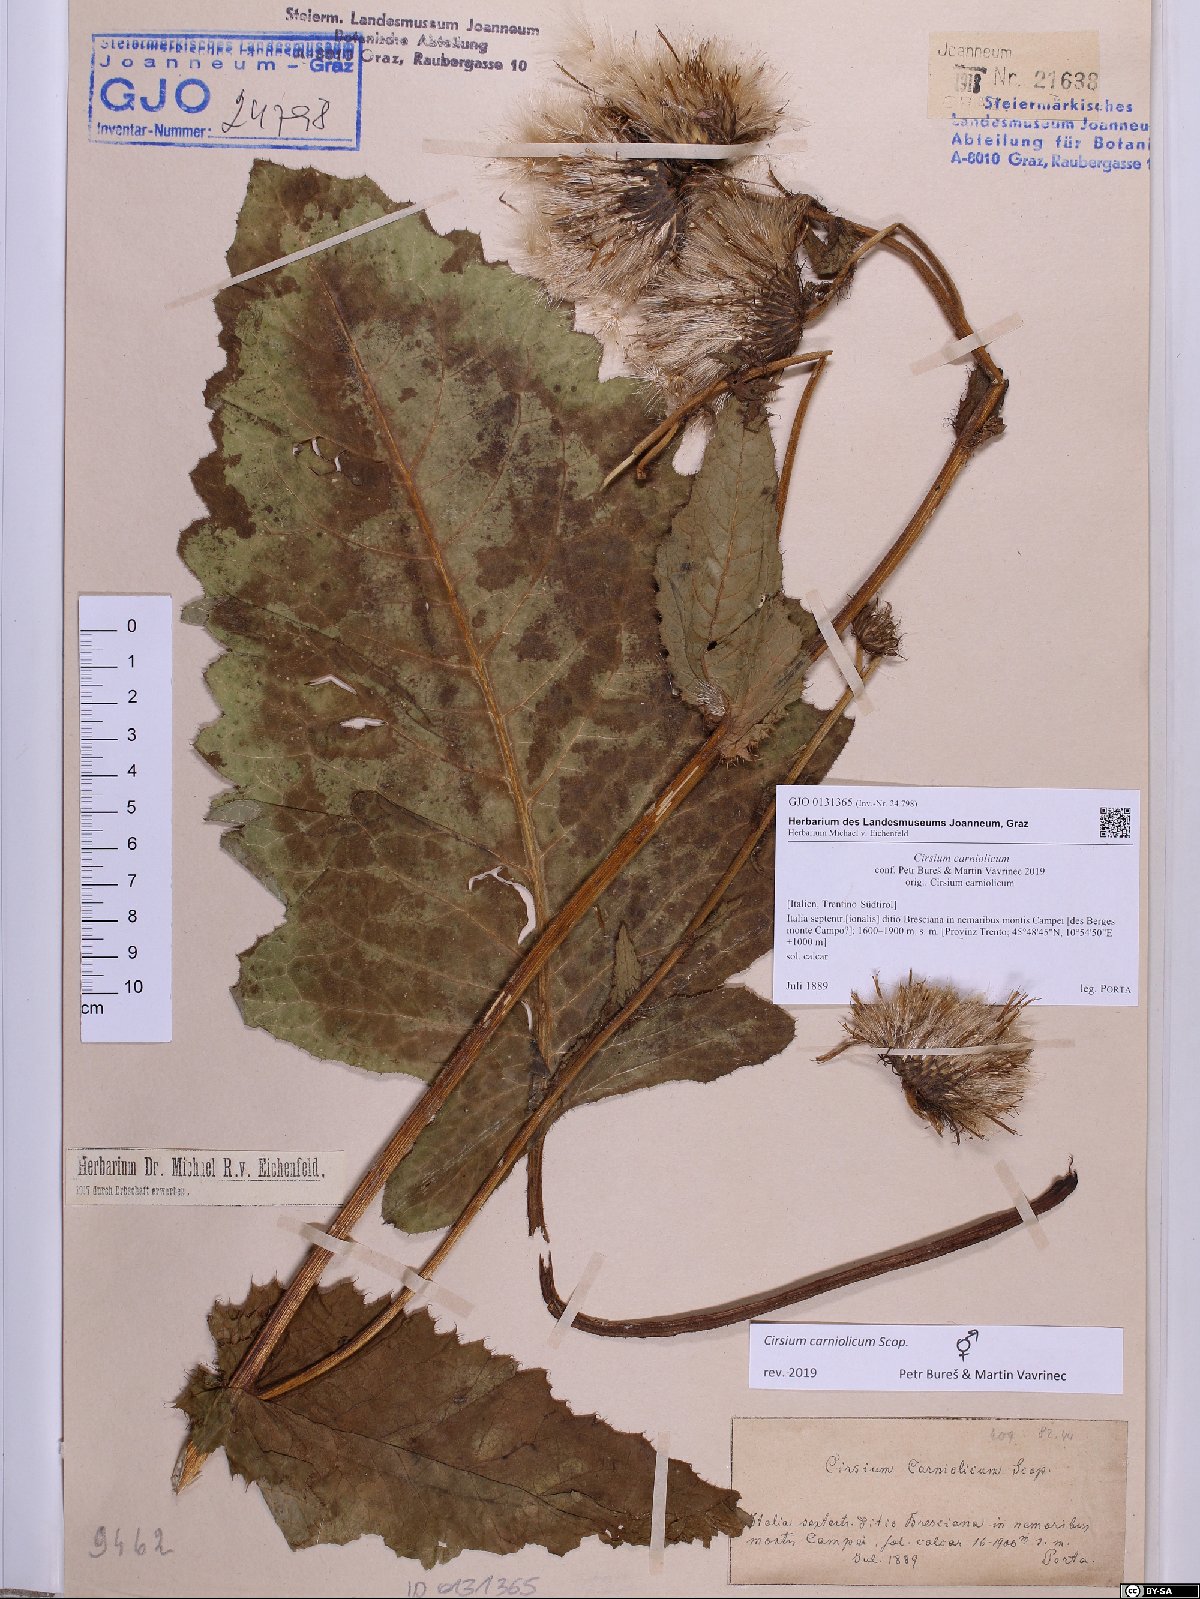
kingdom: Plantae
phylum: Tracheophyta
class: Magnoliopsida
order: Asterales
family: Asteraceae
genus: Cirsium
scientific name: Cirsium carniolicum
